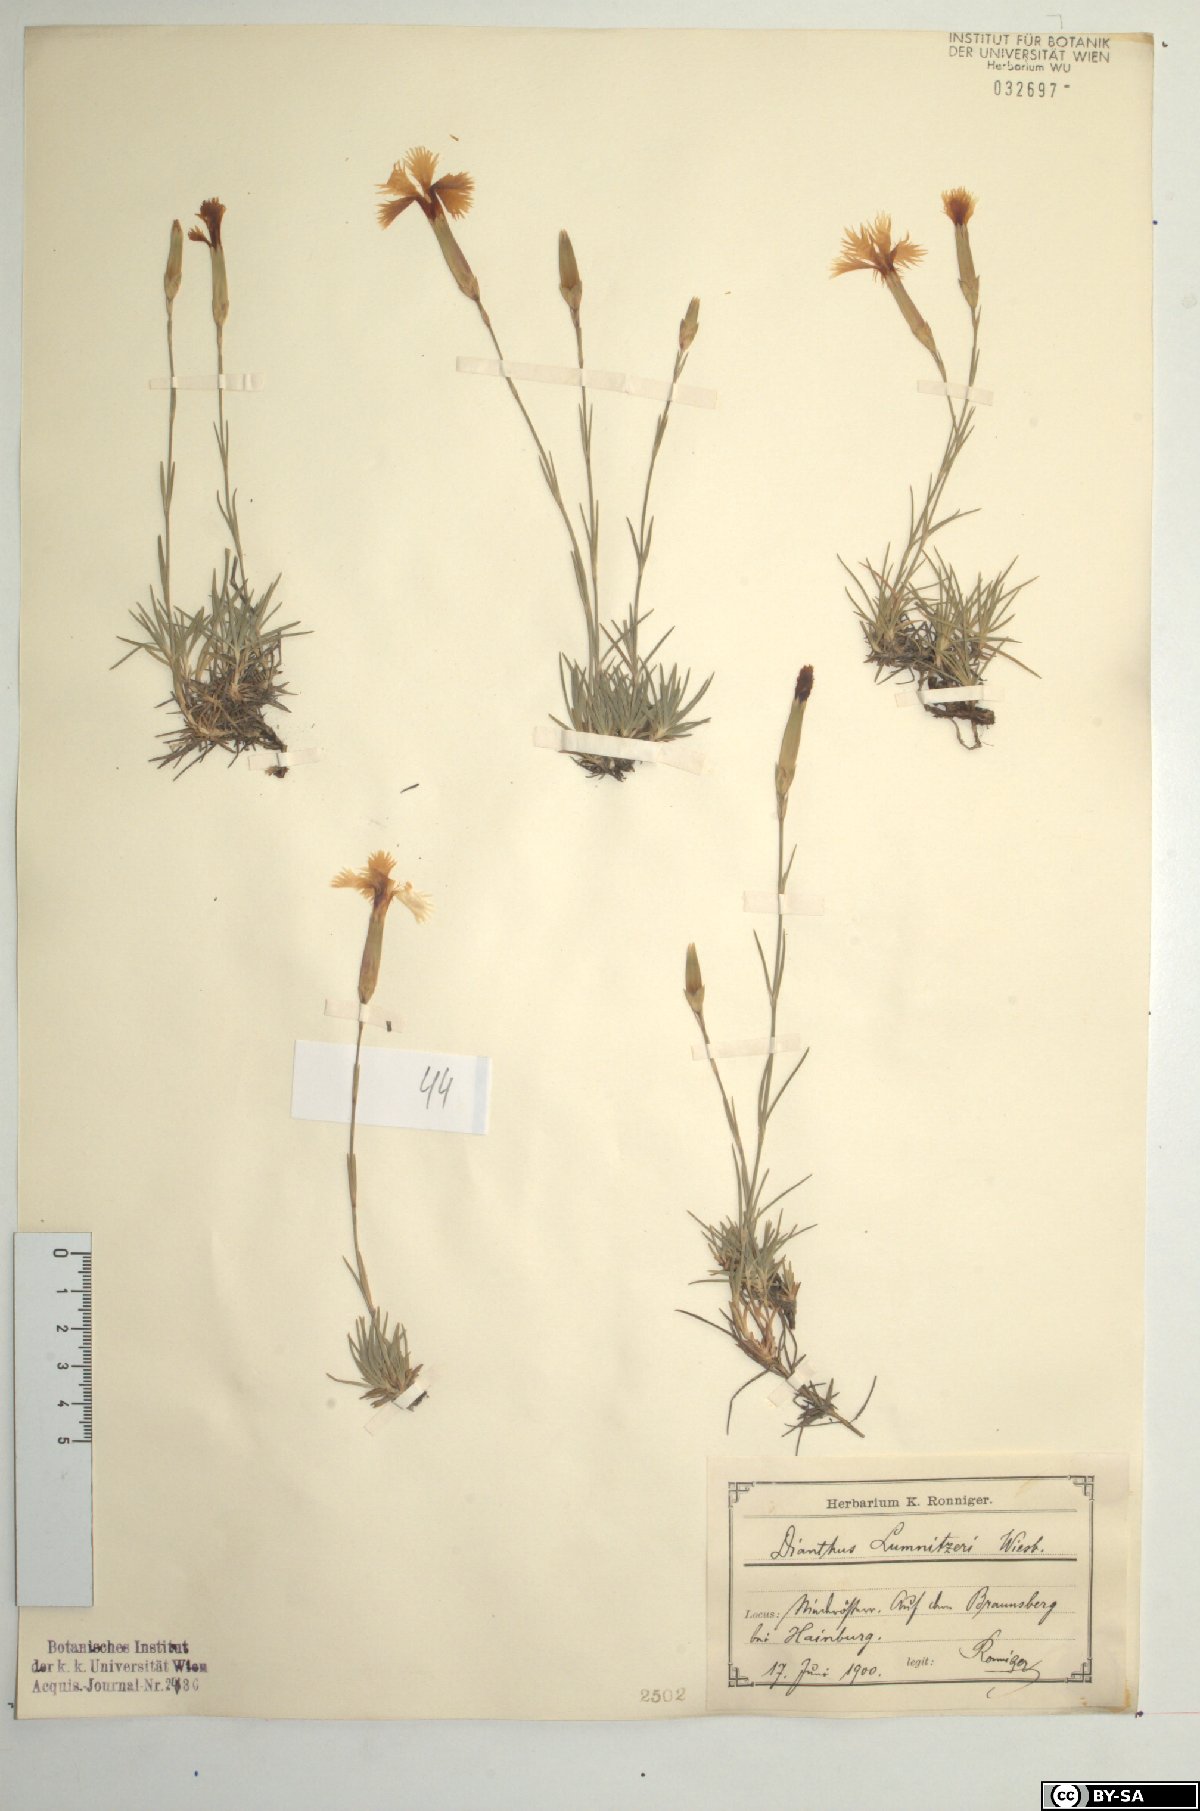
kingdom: Plantae
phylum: Tracheophyta
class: Magnoliopsida
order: Caryophyllales
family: Caryophyllaceae
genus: Dianthus
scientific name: Dianthus praecox
